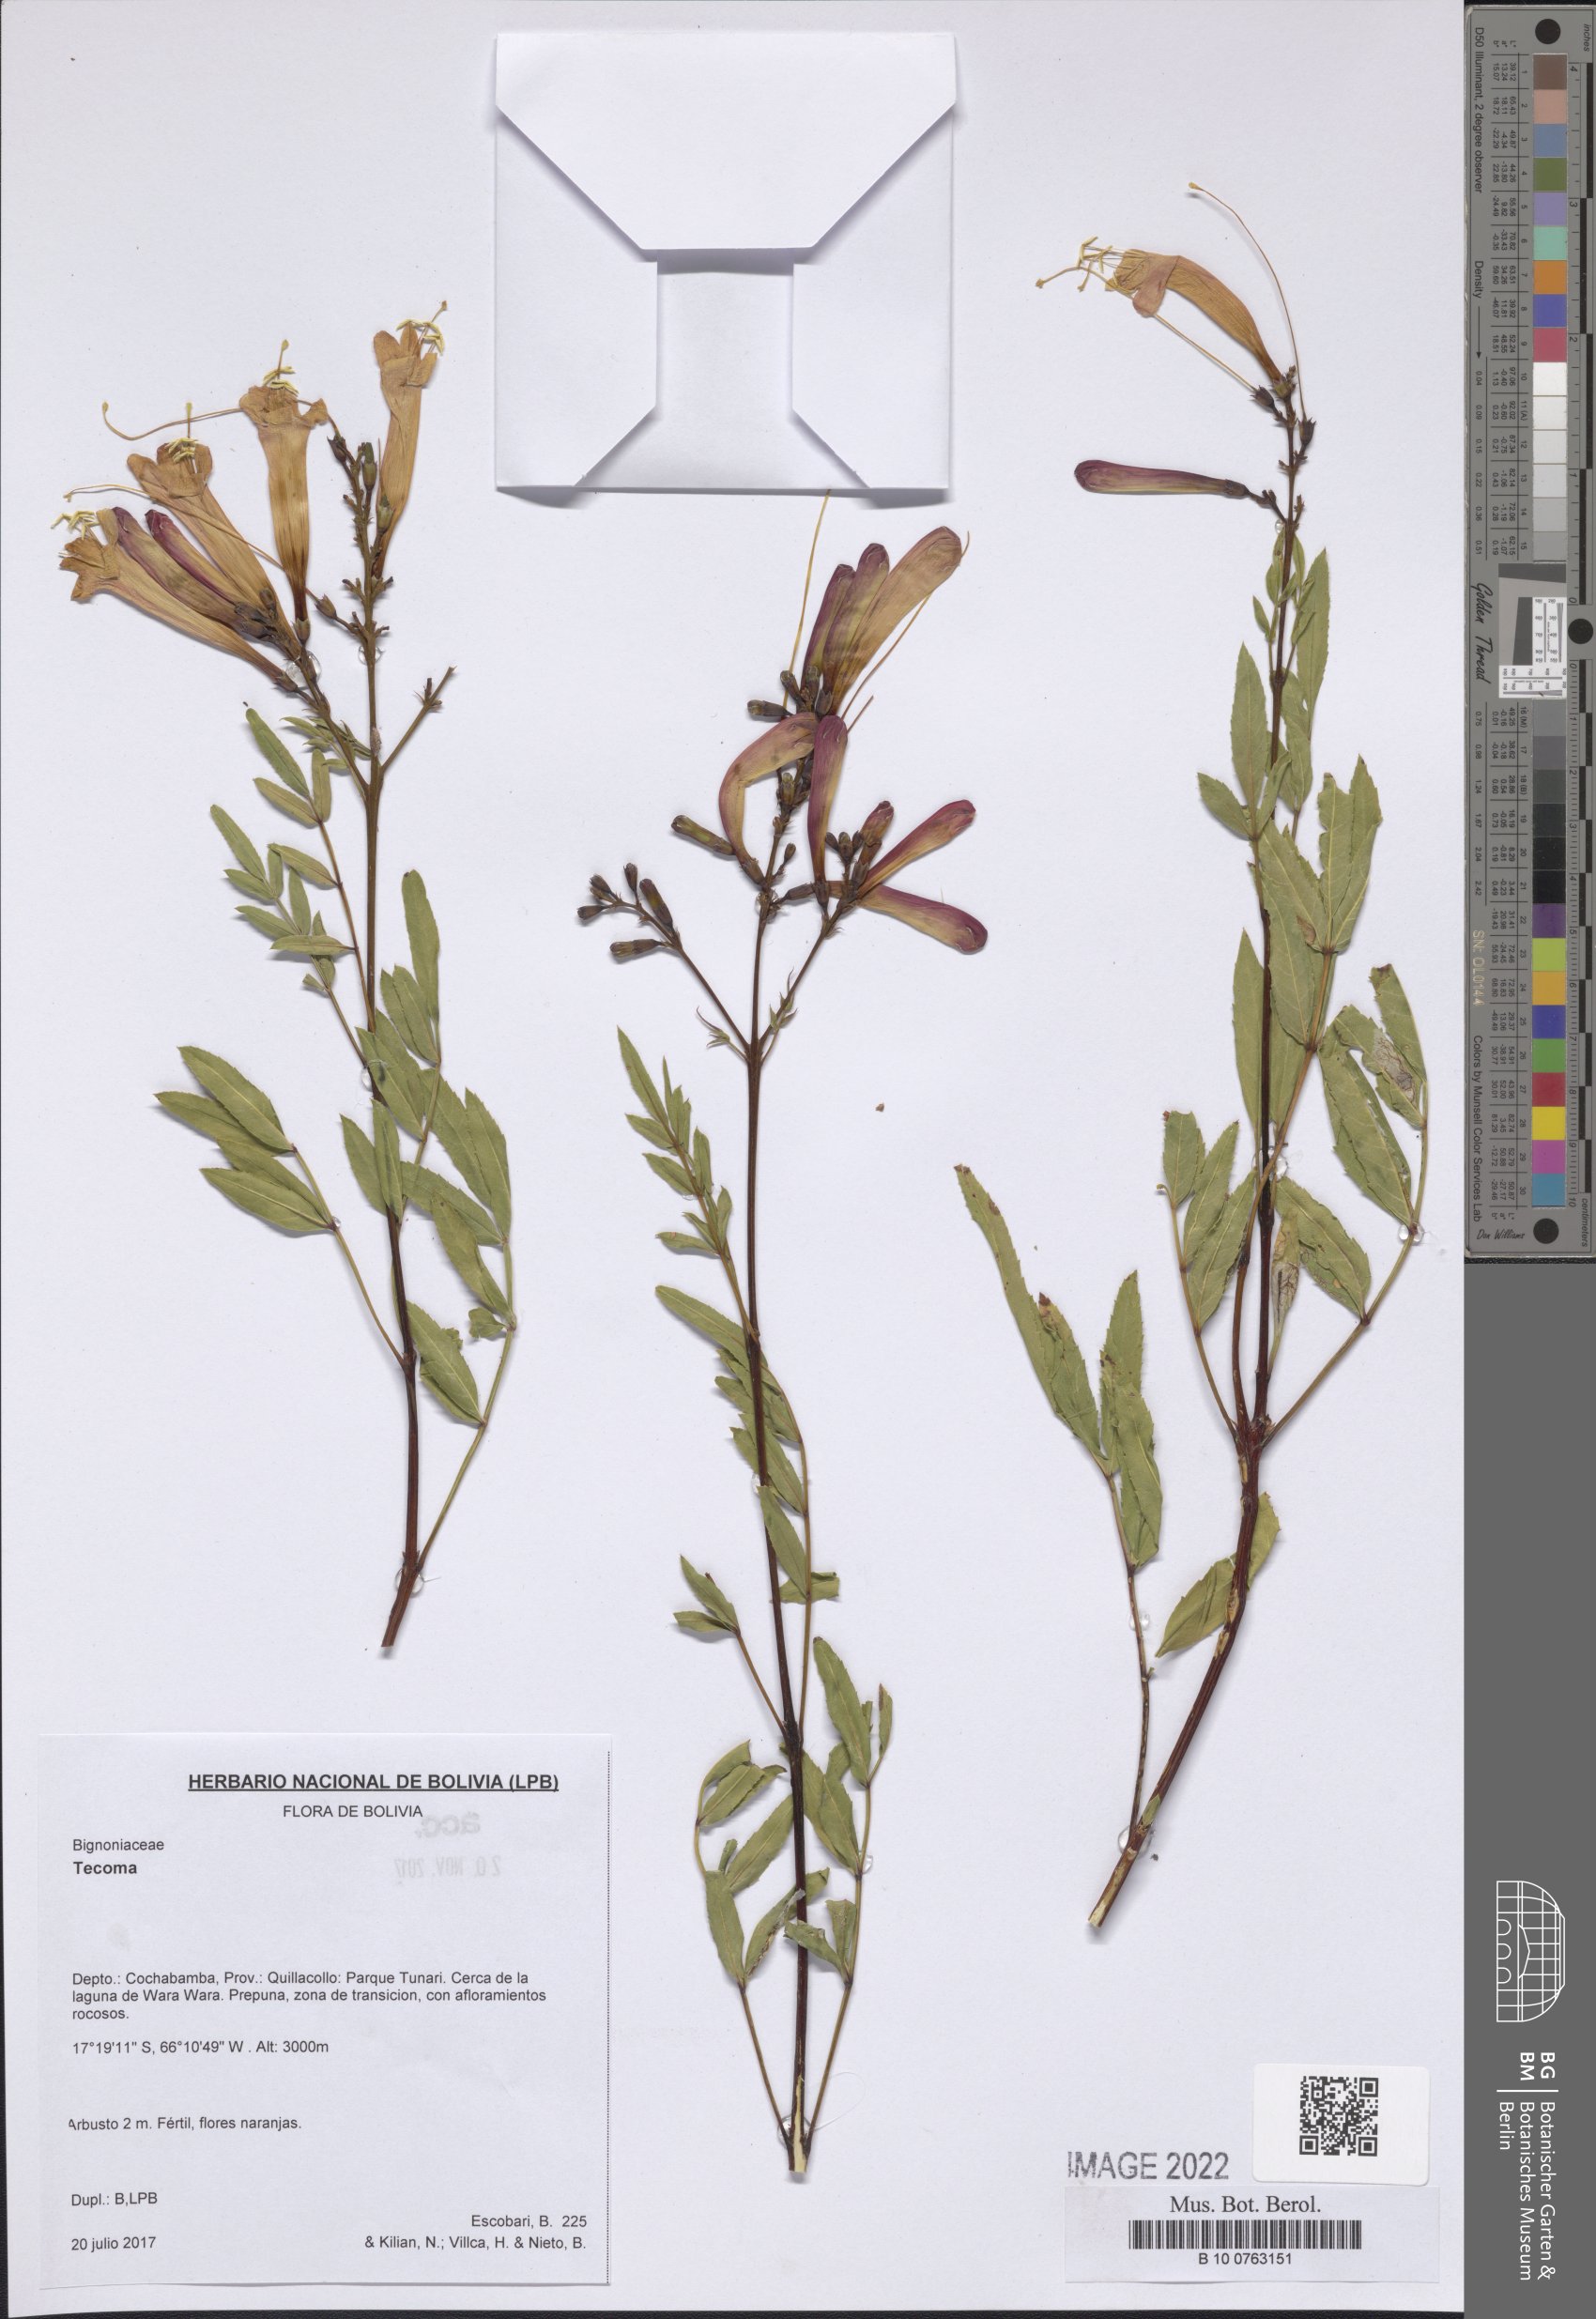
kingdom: Plantae
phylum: Tracheophyta
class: Magnoliopsida
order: Lamiales
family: Bignoniaceae
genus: Tecoma
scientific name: Tecoma
